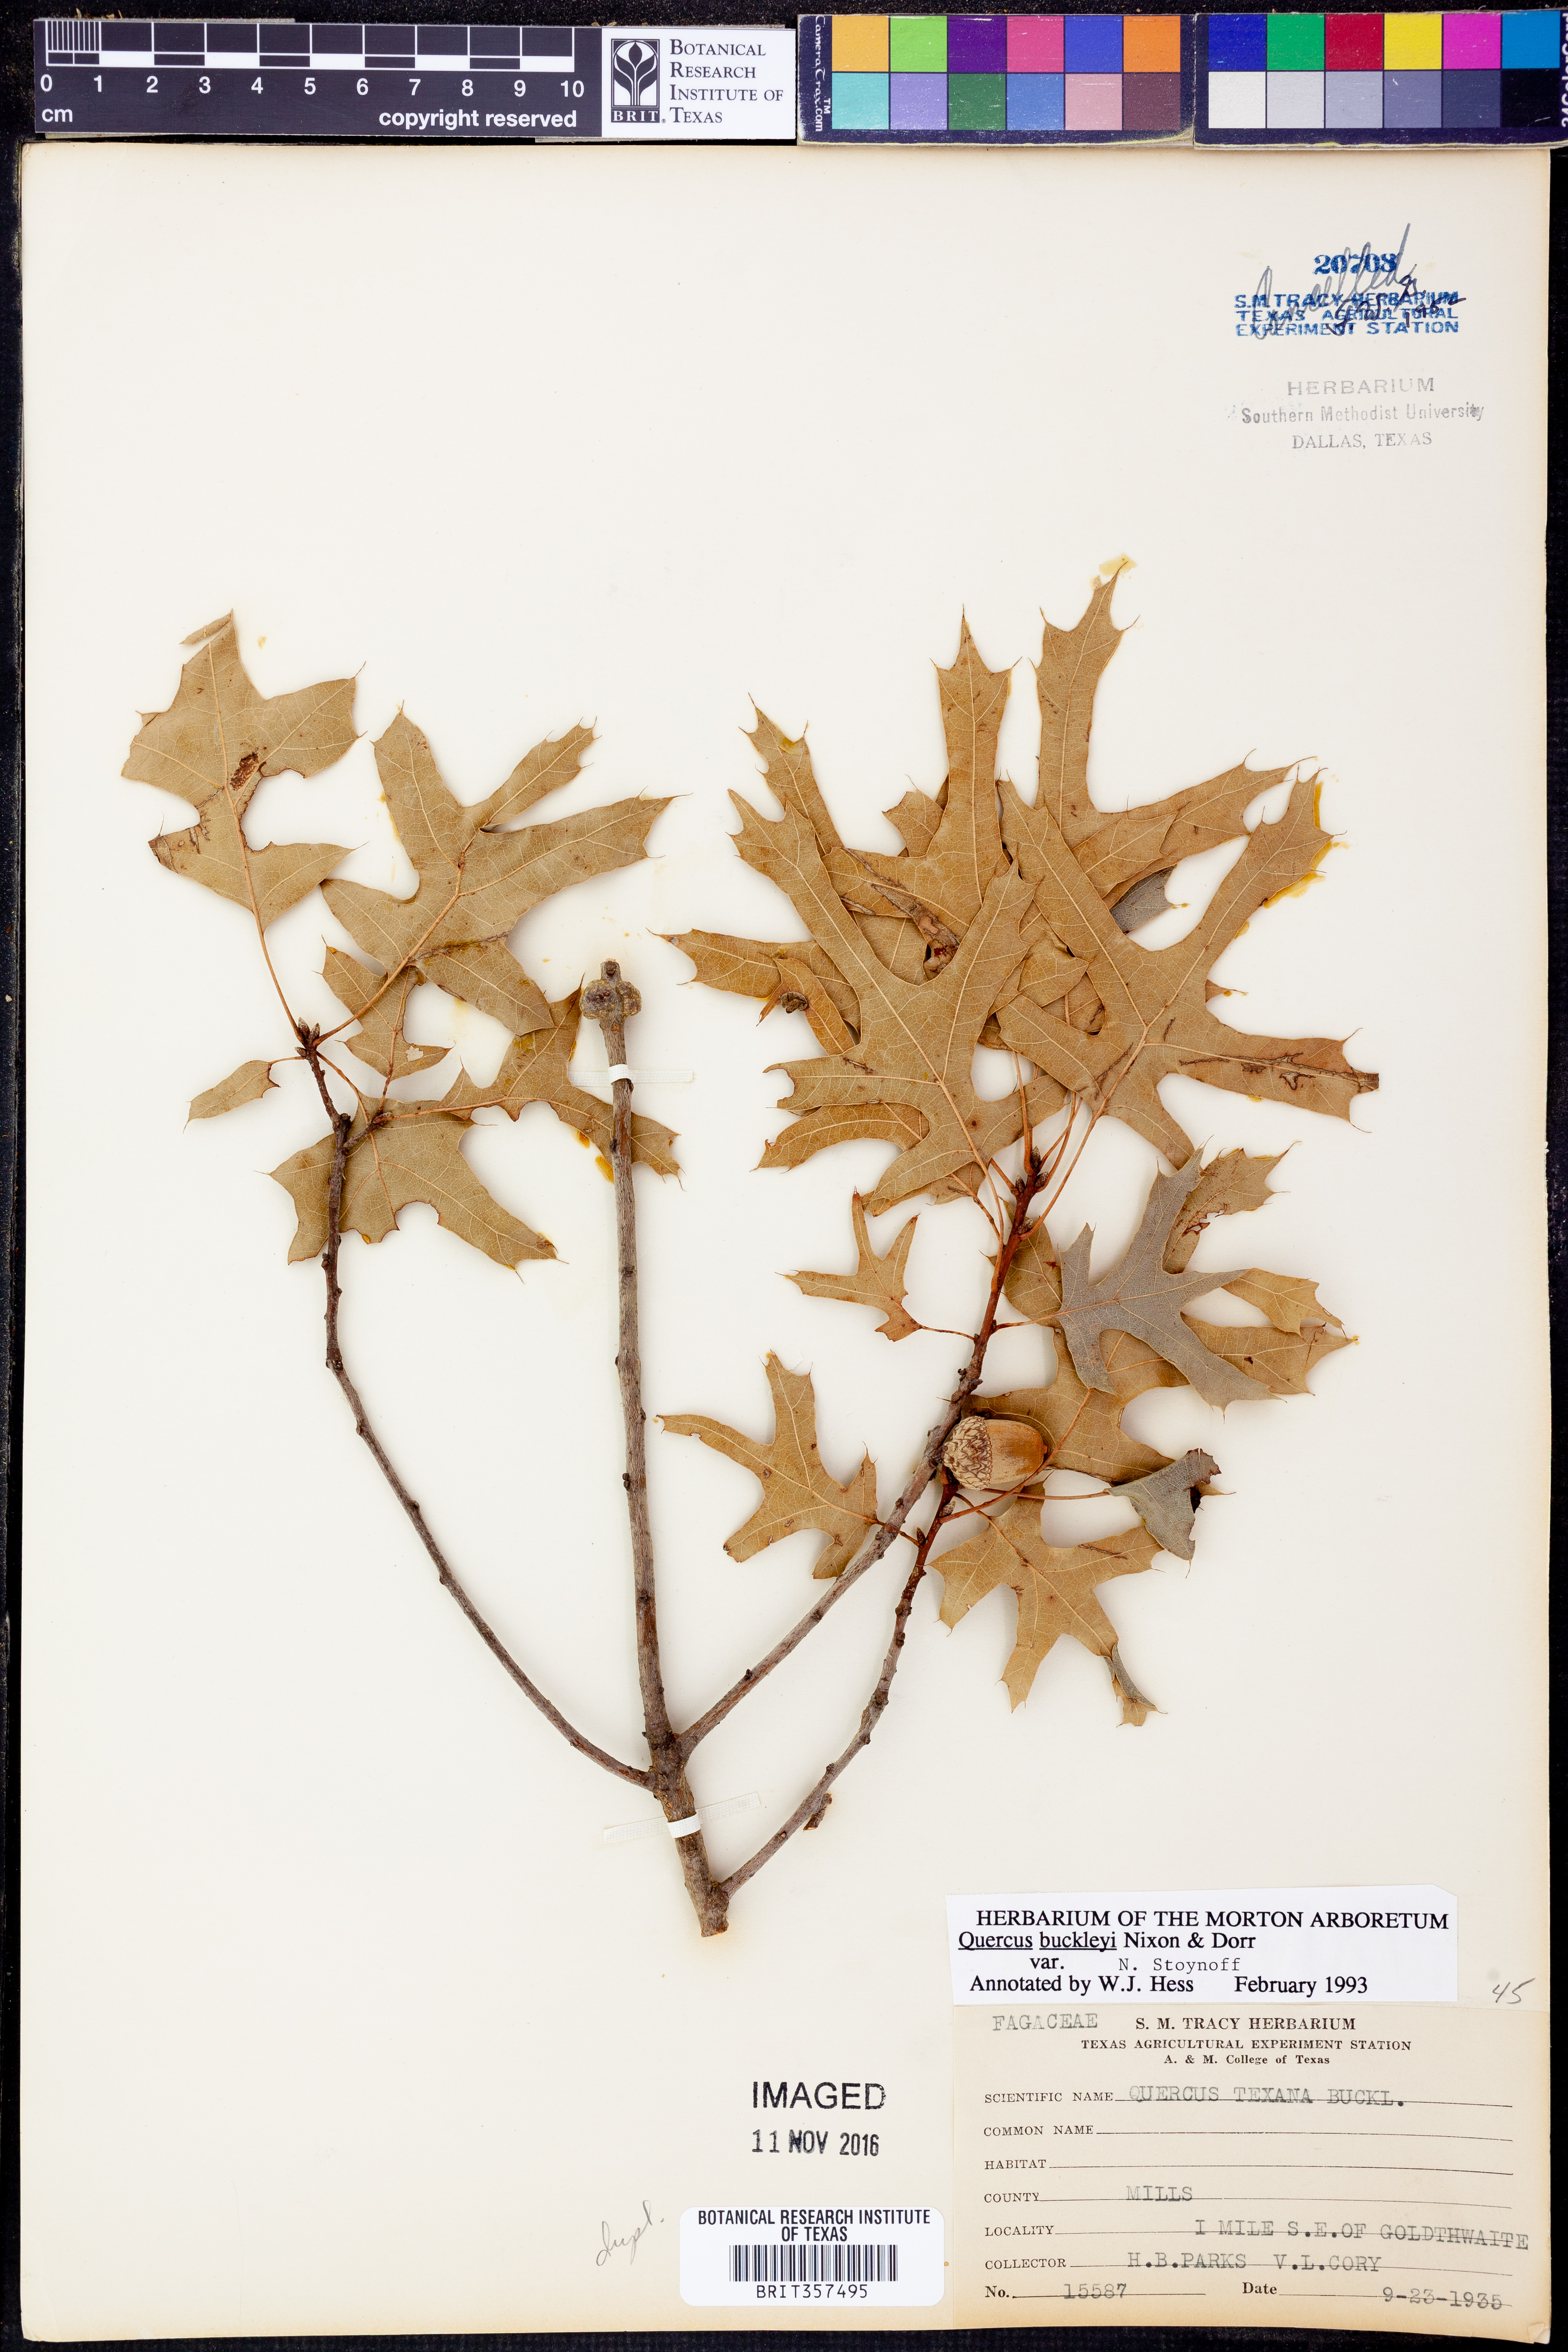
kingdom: Plantae
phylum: Tracheophyta
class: Magnoliopsida
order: Fagales
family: Fagaceae
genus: Quercus
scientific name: Quercus buckleyi
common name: Buckley oak
